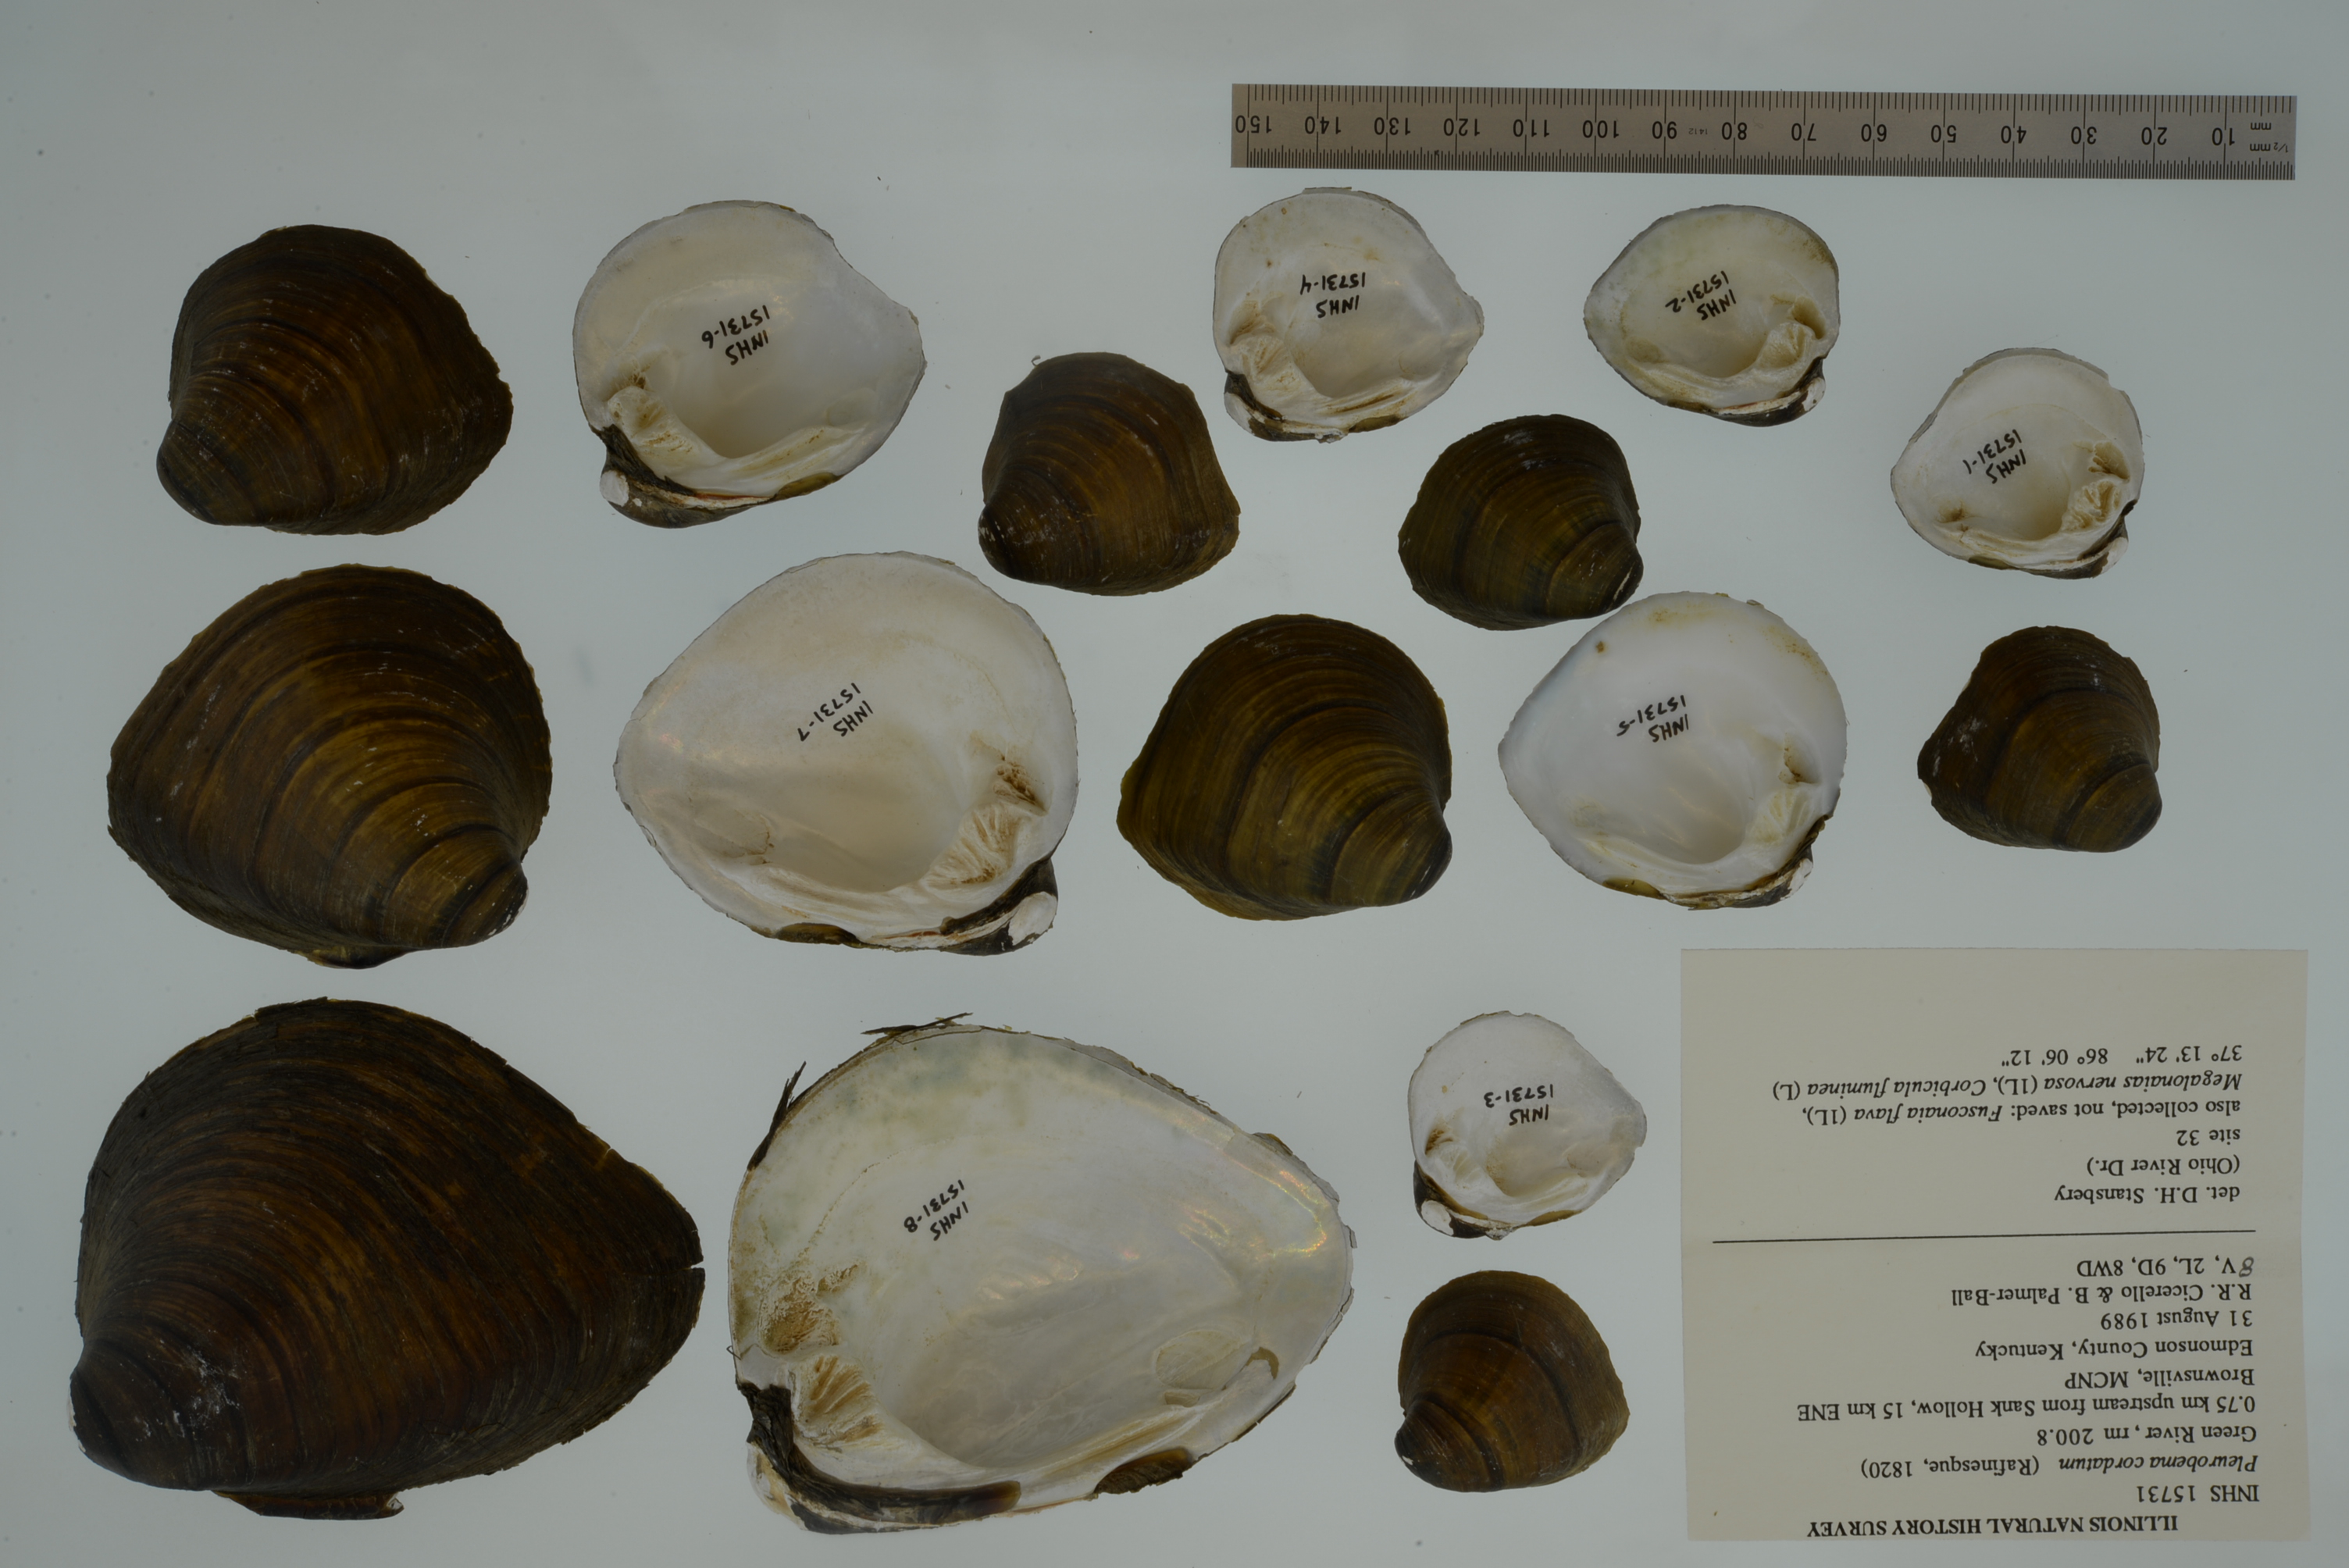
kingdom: Animalia
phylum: Mollusca
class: Bivalvia
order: Unionida
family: Unionidae
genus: Pleurobema
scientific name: Pleurobema cordatum
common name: Ohio pigtoe
